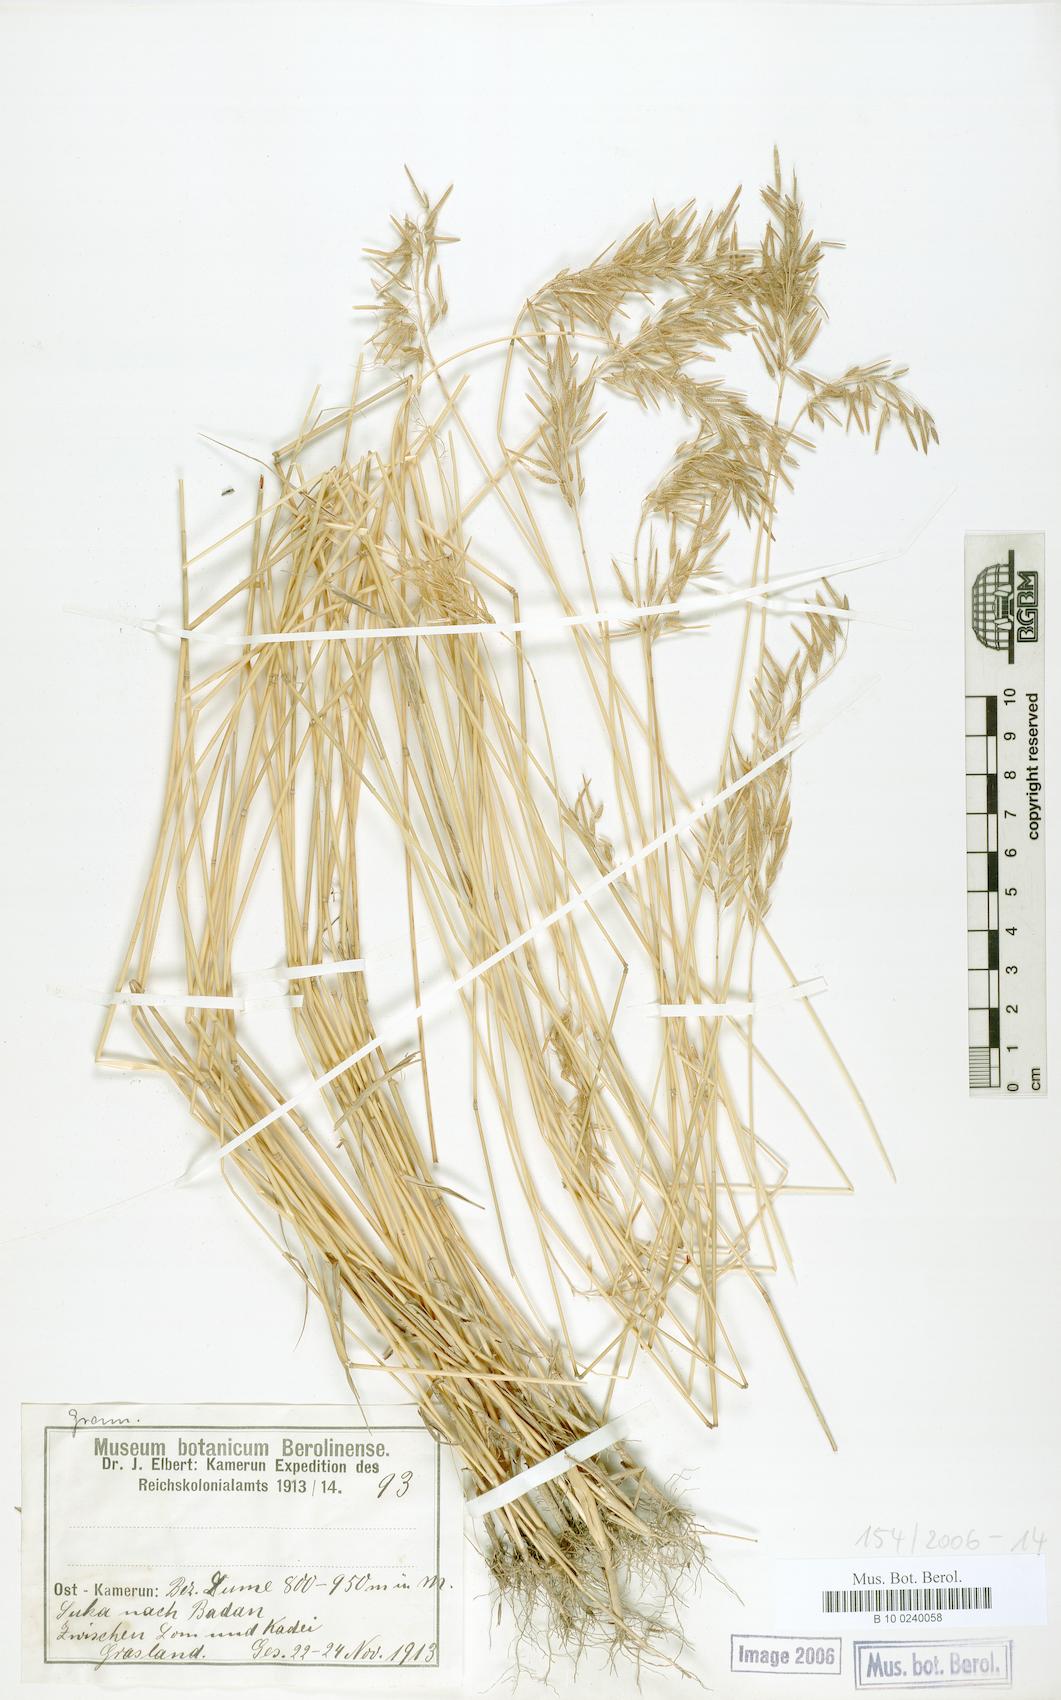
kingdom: Plantae
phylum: Tracheophyta
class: Liliopsida
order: Poales
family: Poaceae
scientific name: Poaceae
